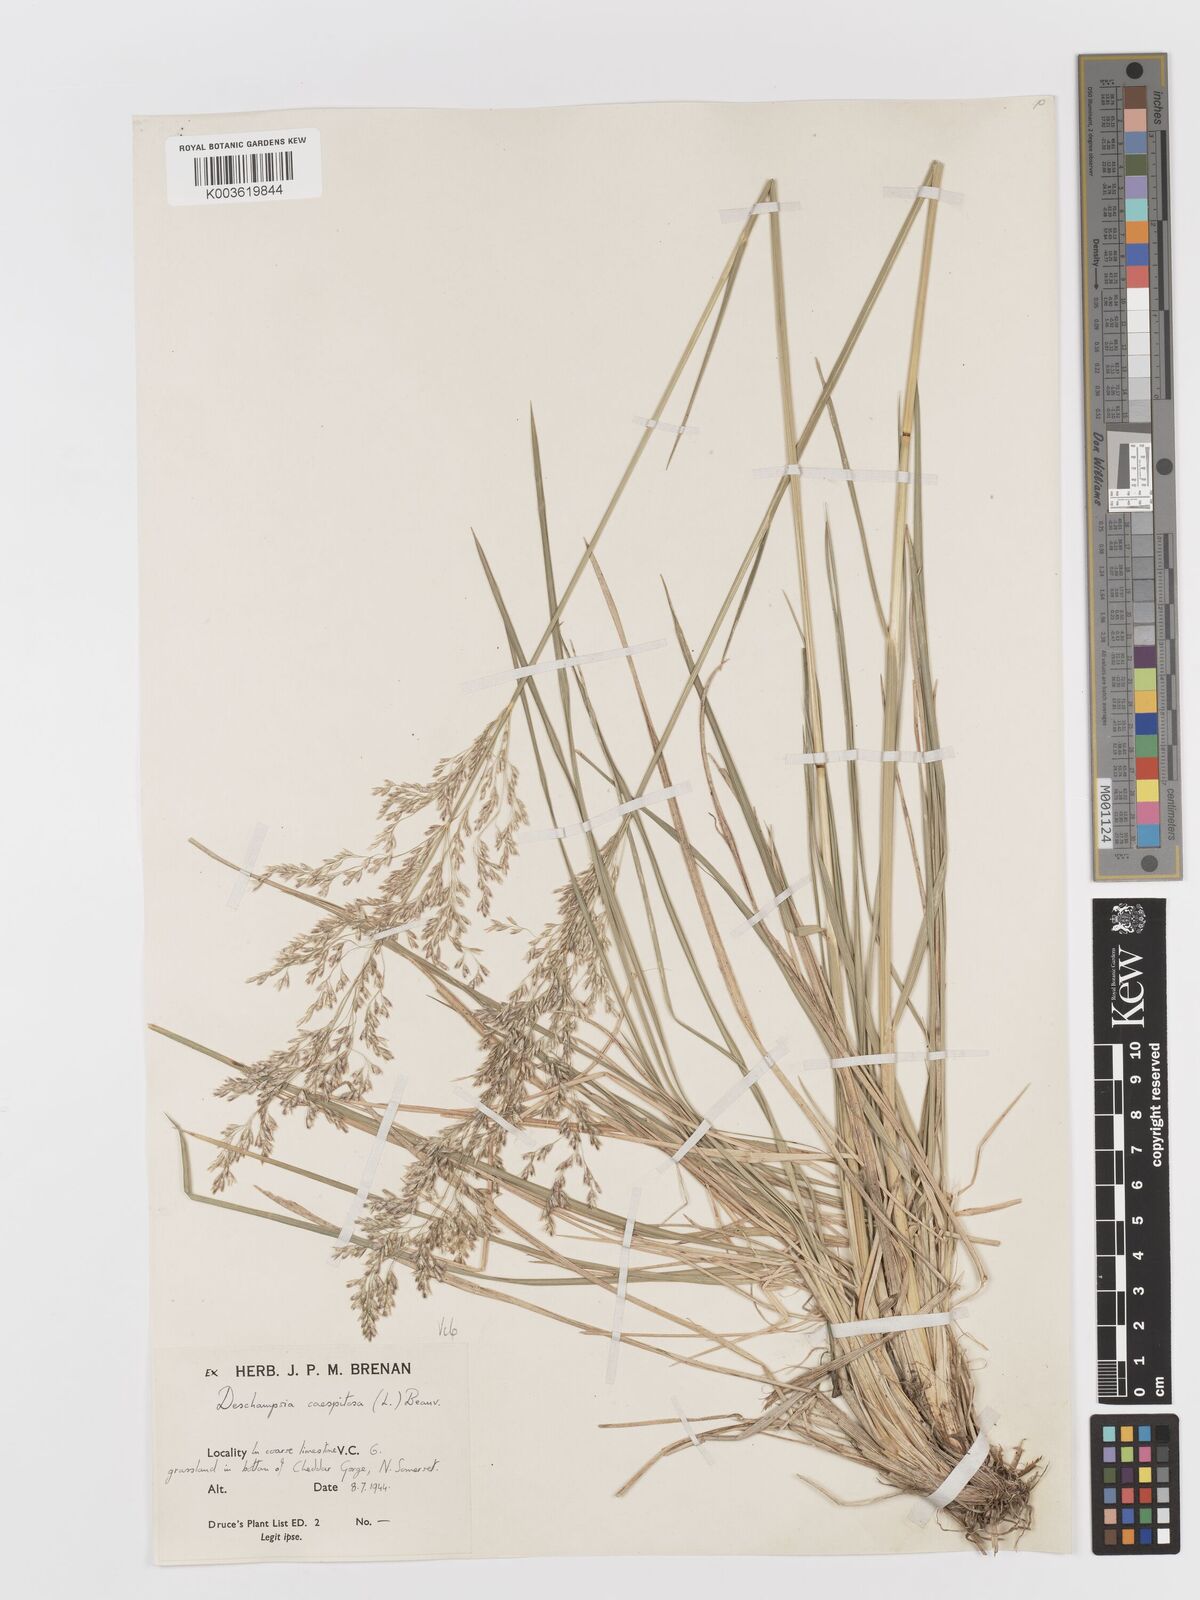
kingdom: Plantae
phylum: Tracheophyta
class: Liliopsida
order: Poales
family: Poaceae
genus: Deschampsia
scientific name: Deschampsia cespitosa
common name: Tufted hair-grass
